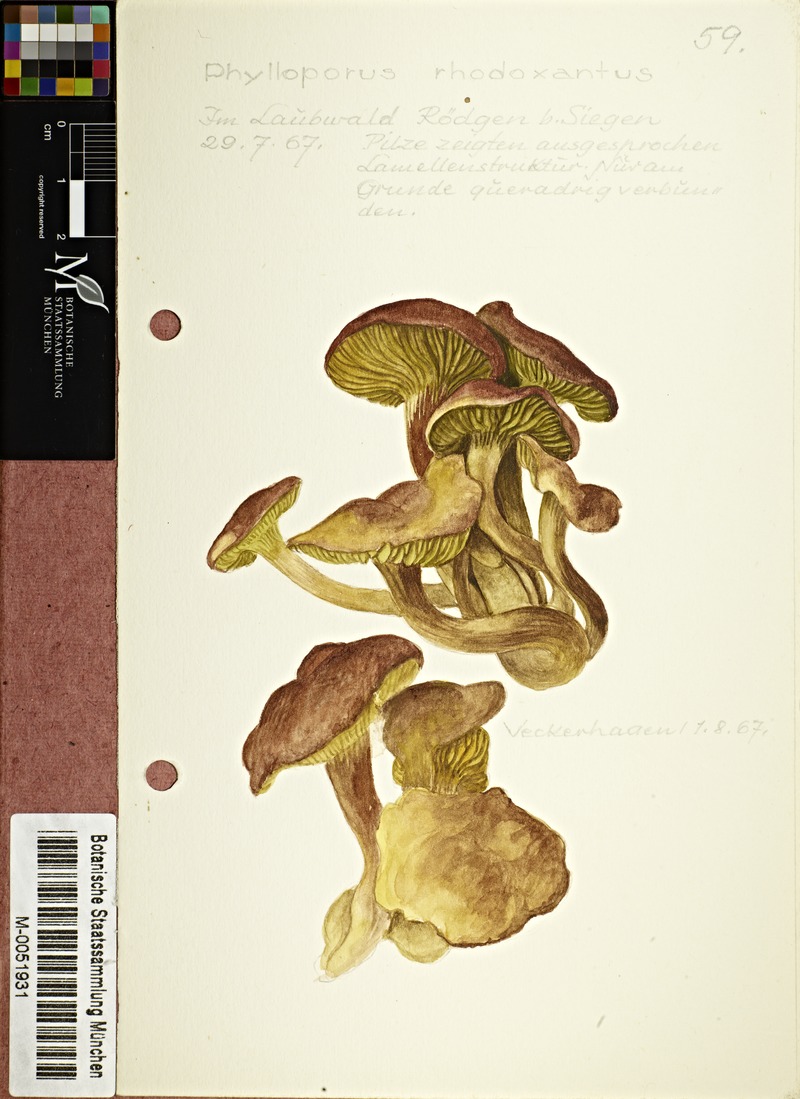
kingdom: Fungi
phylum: Basidiomycota
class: Agaricomycetes
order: Boletales
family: Boletaceae
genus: Phylloporus
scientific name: Phylloporus rhodoxanthus
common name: Golden gilled bolete
